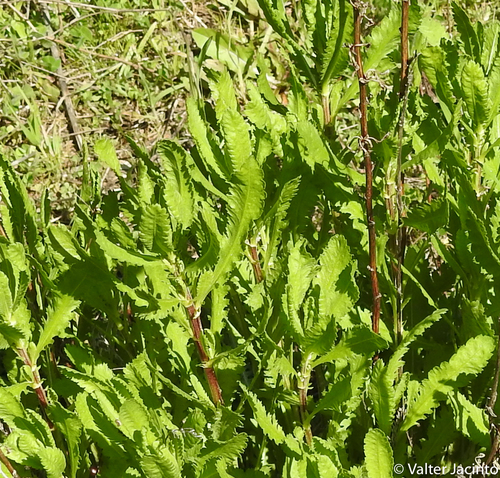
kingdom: Plantae
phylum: Tracheophyta
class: Magnoliopsida
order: Asterales
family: Asteraceae
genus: Achillea
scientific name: Achillea ageratum
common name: Sweet-nancy
